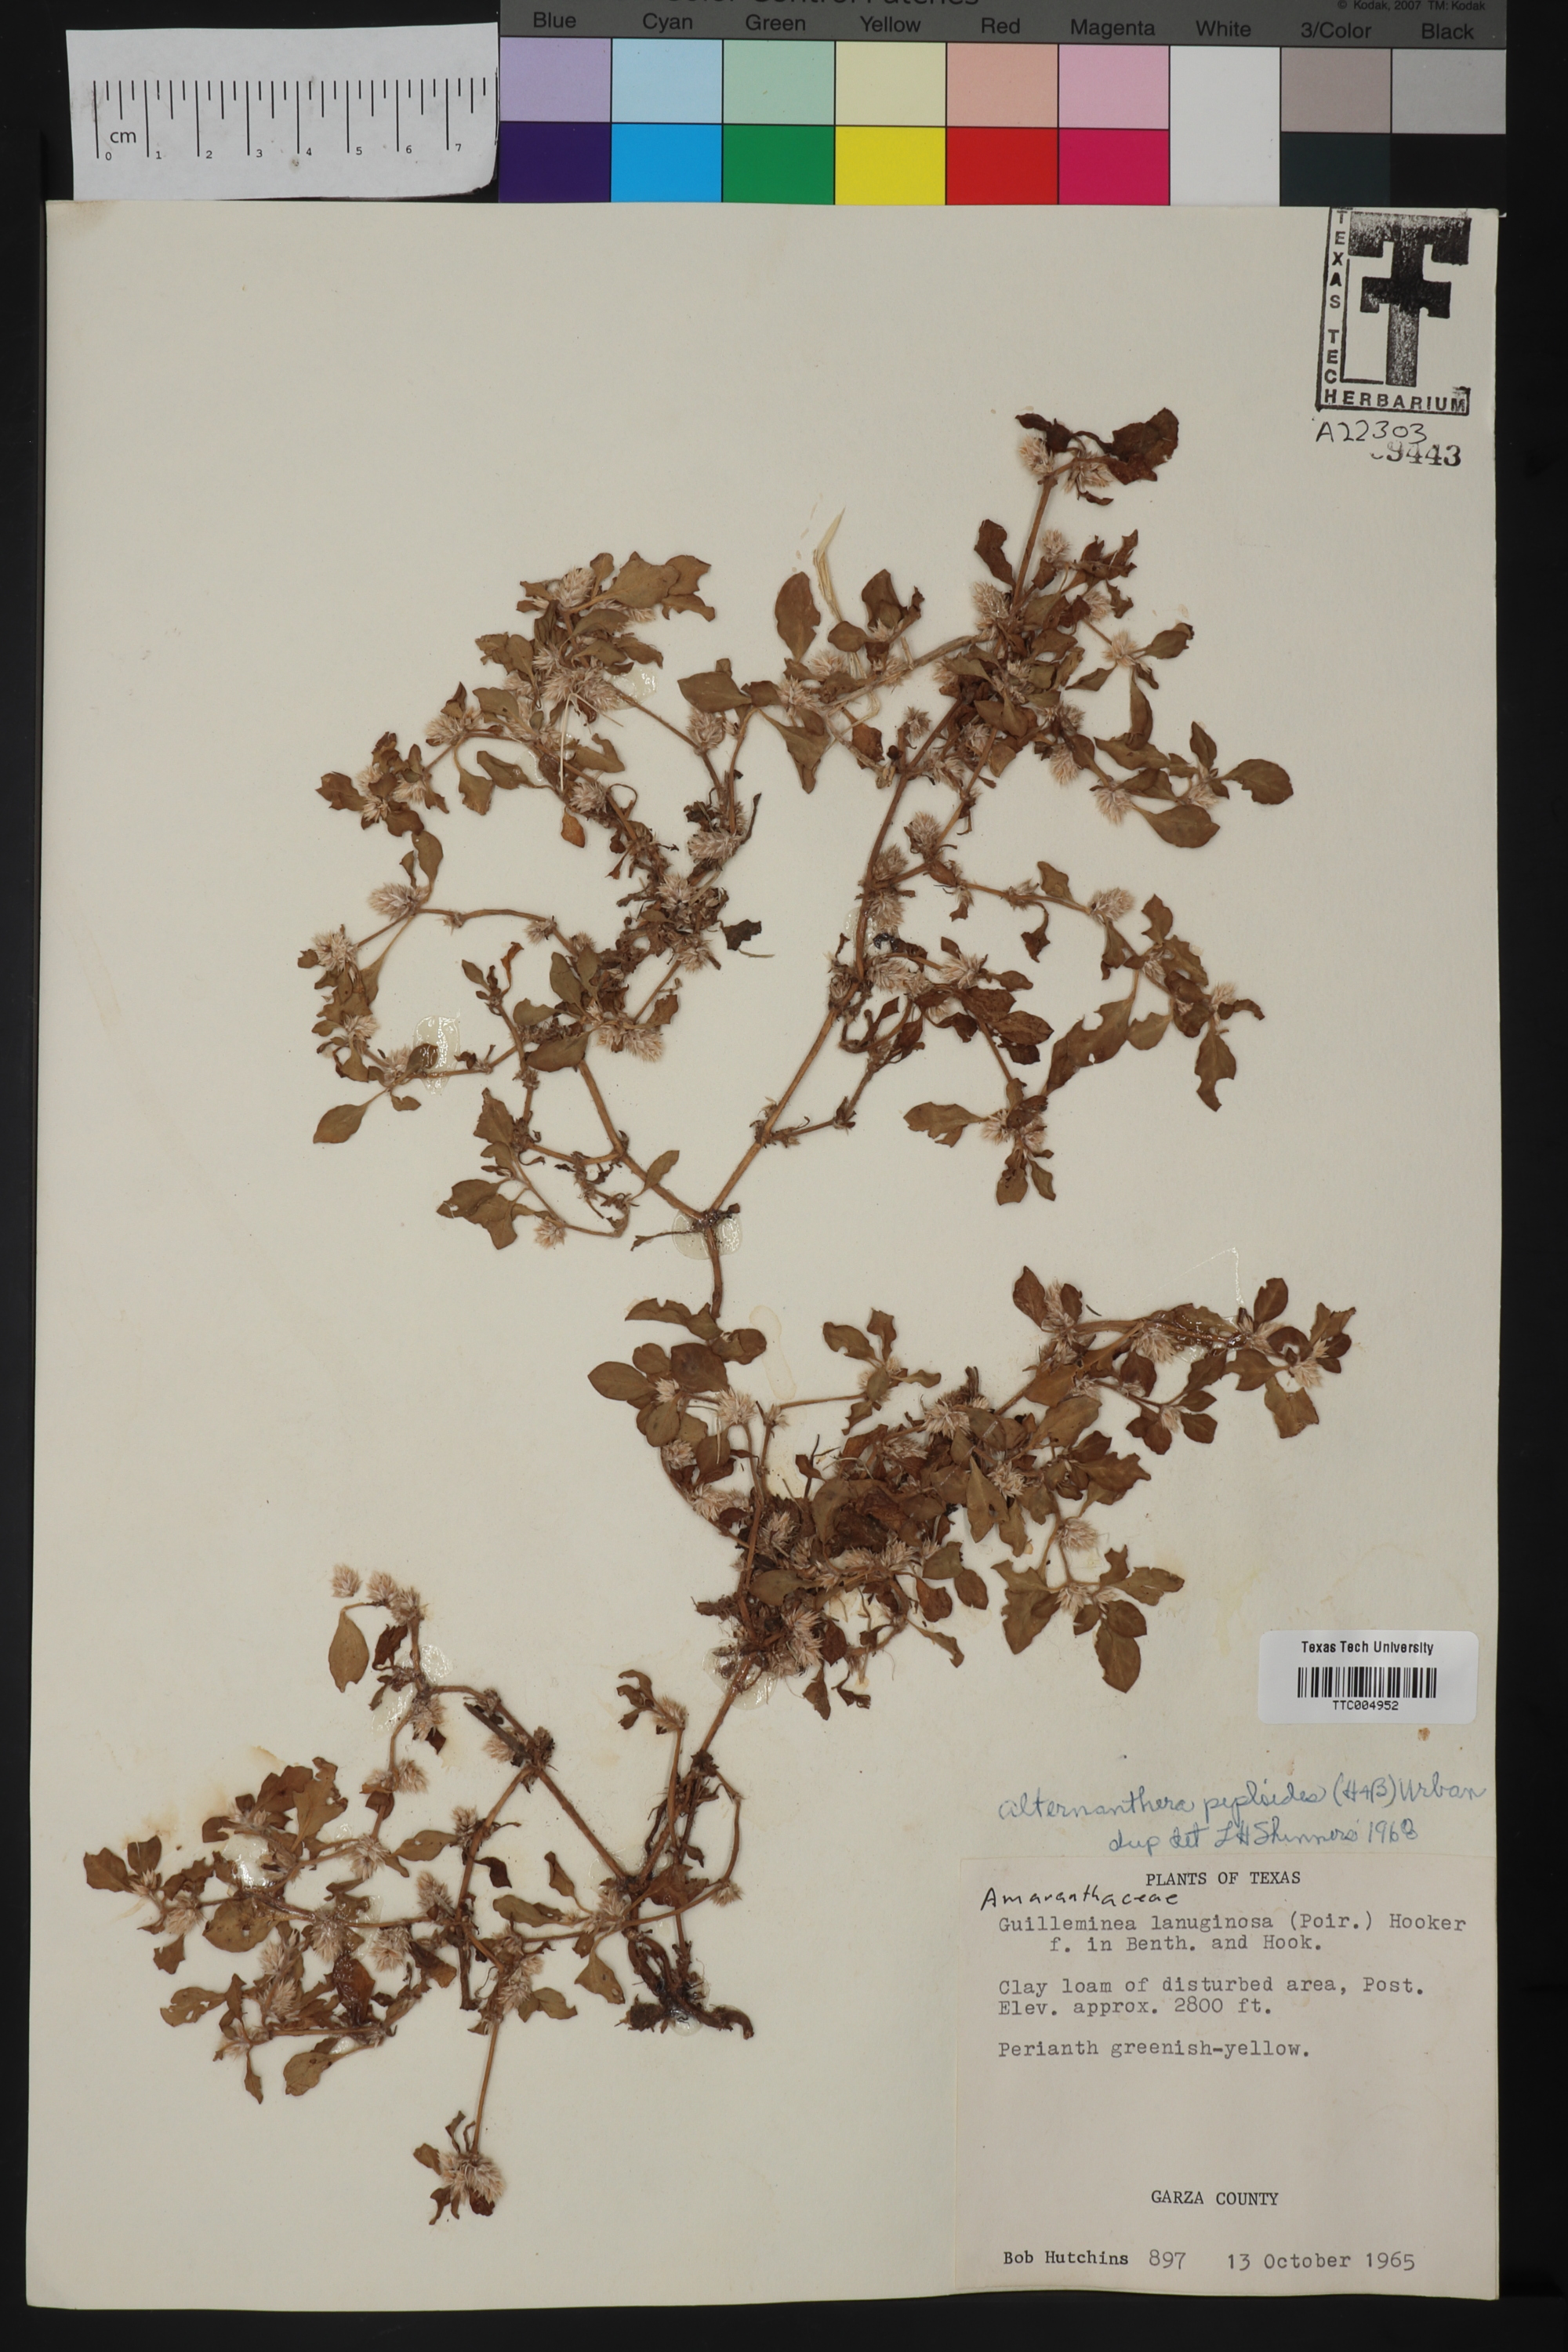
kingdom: Plantae
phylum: Tracheophyta
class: Magnoliopsida
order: Caryophyllales
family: Amaranthaceae
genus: Alternanthera
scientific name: Alternanthera caracasana
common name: Washerwoman
